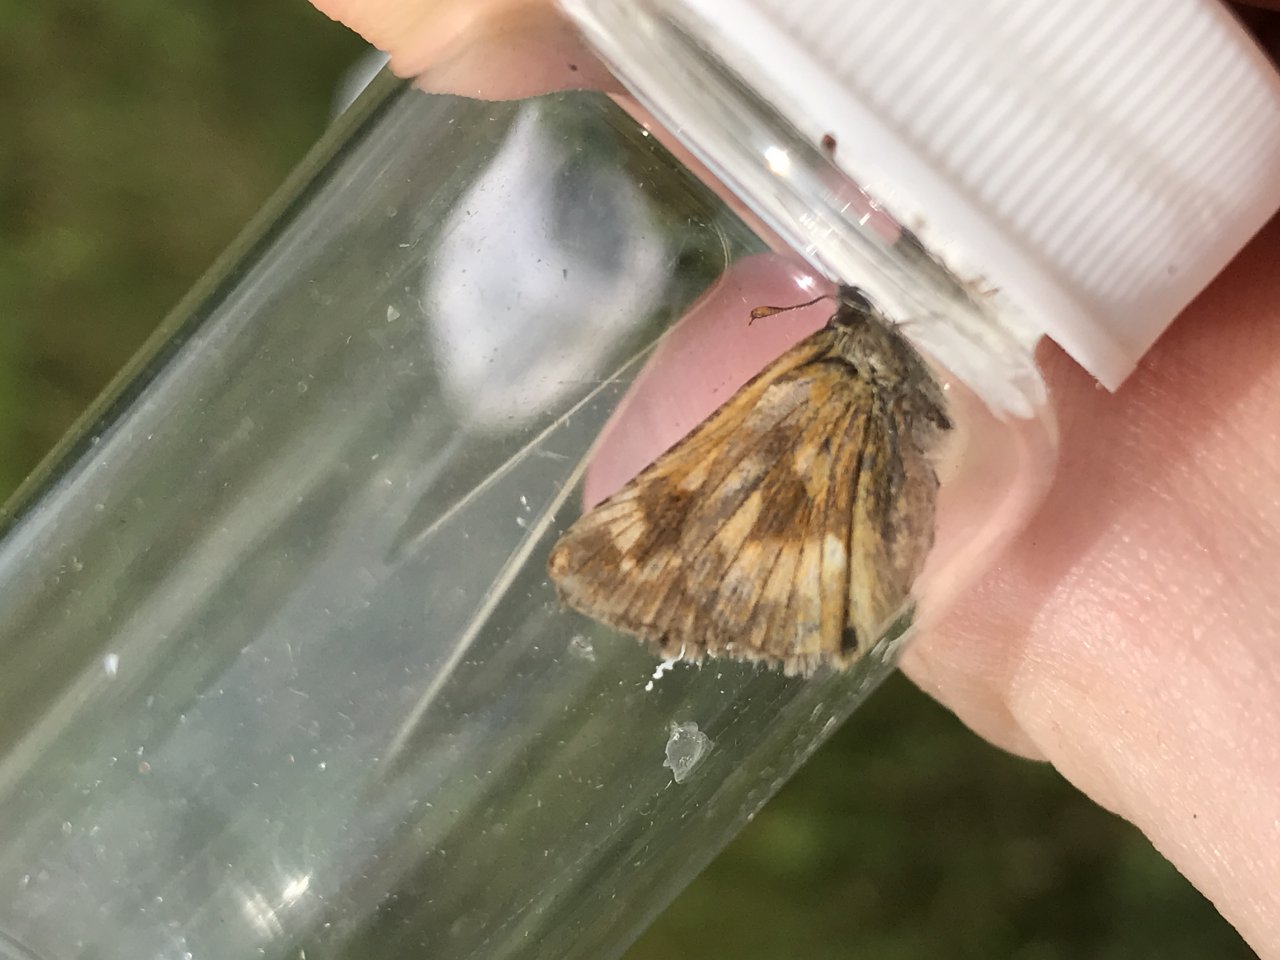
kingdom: Animalia
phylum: Arthropoda
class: Insecta
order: Lepidoptera
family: Hesperiidae
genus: Polites
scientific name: Polites
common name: Long Dash Skipper
